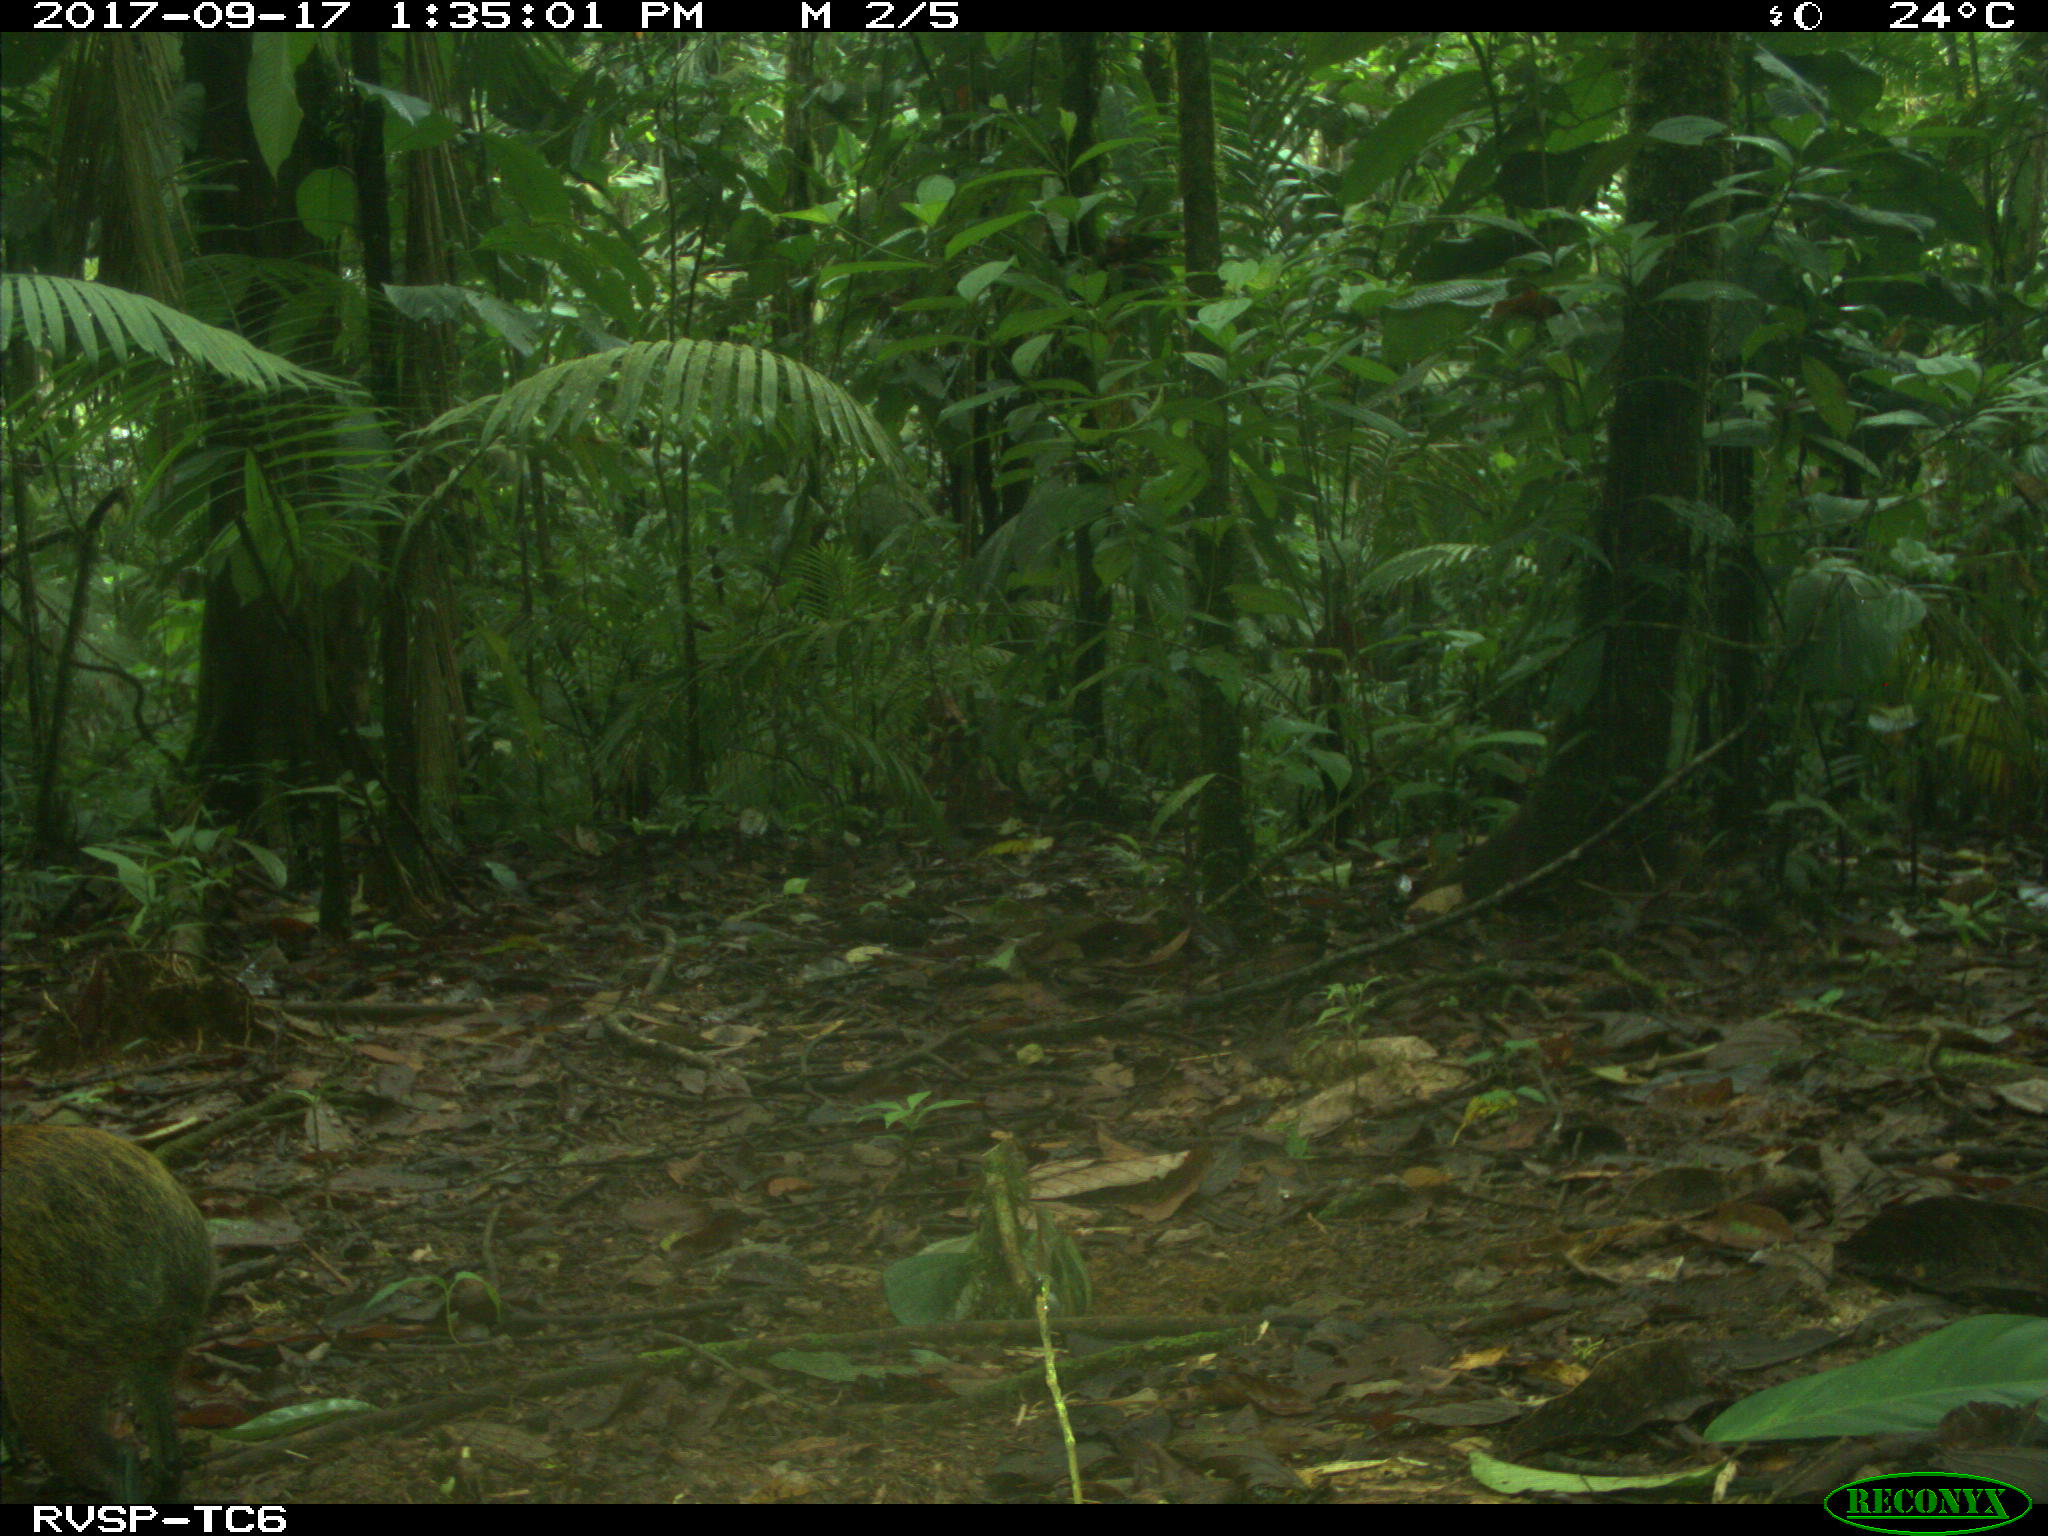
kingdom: Animalia
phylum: Chordata
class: Mammalia
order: Rodentia
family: Dasyproctidae
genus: Dasyprocta
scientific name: Dasyprocta punctata
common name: Central american agouti
